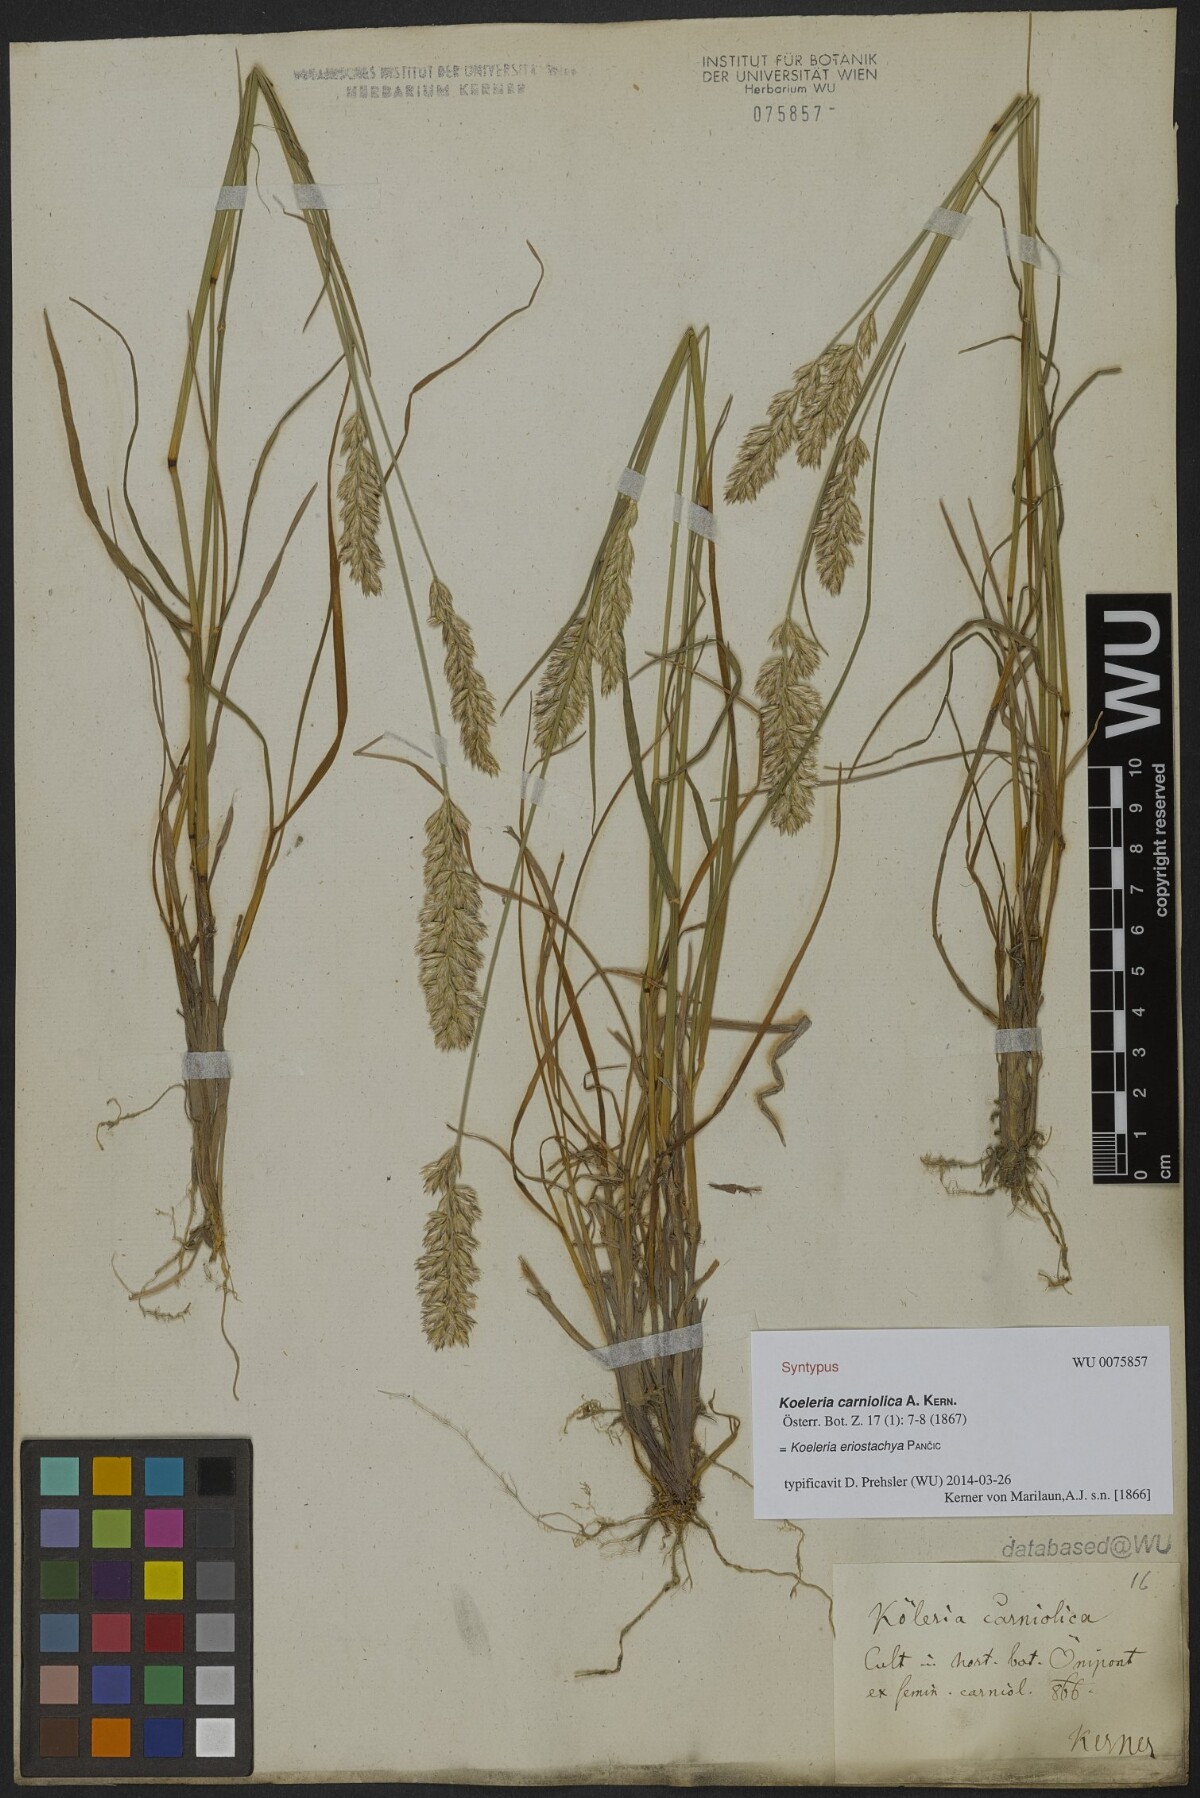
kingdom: Plantae
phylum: Tracheophyta
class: Liliopsida
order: Poales
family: Poaceae
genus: Koeleria
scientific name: Koeleria eriostachya
